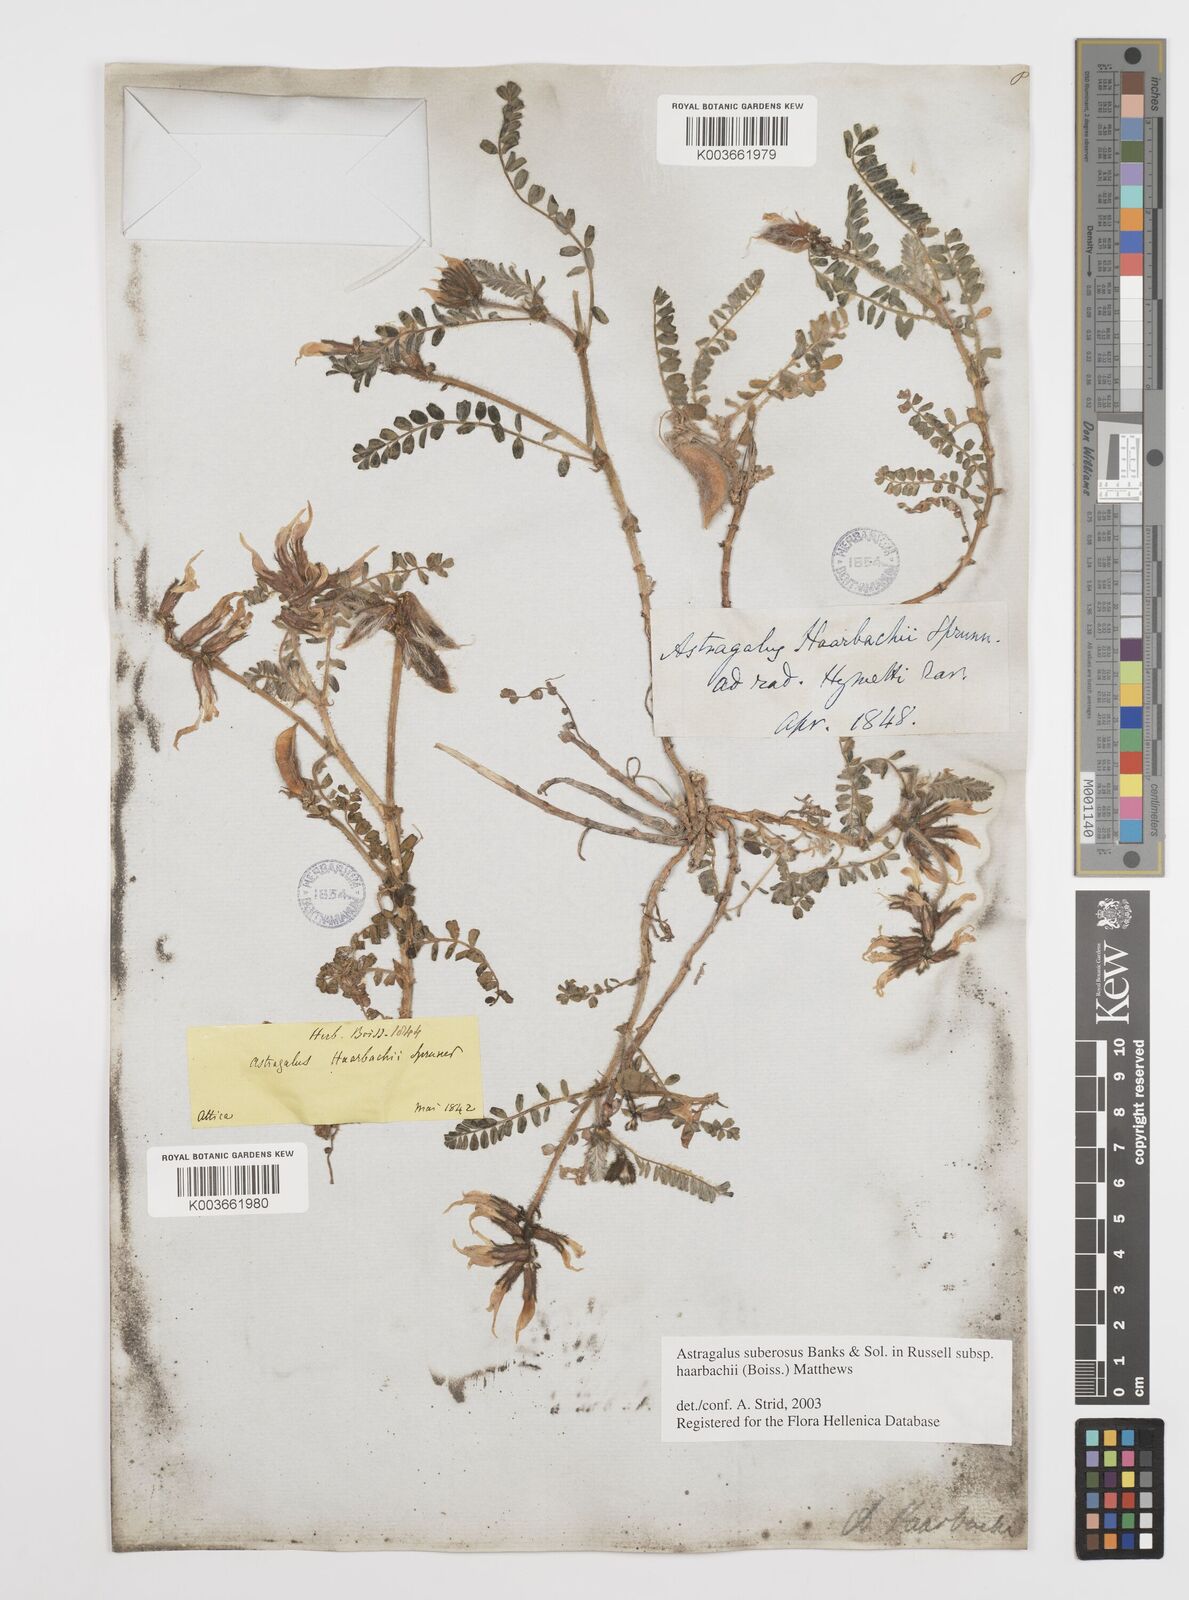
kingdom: Plantae
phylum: Tracheophyta
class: Magnoliopsida
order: Fabales
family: Fabaceae
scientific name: Fabaceae
